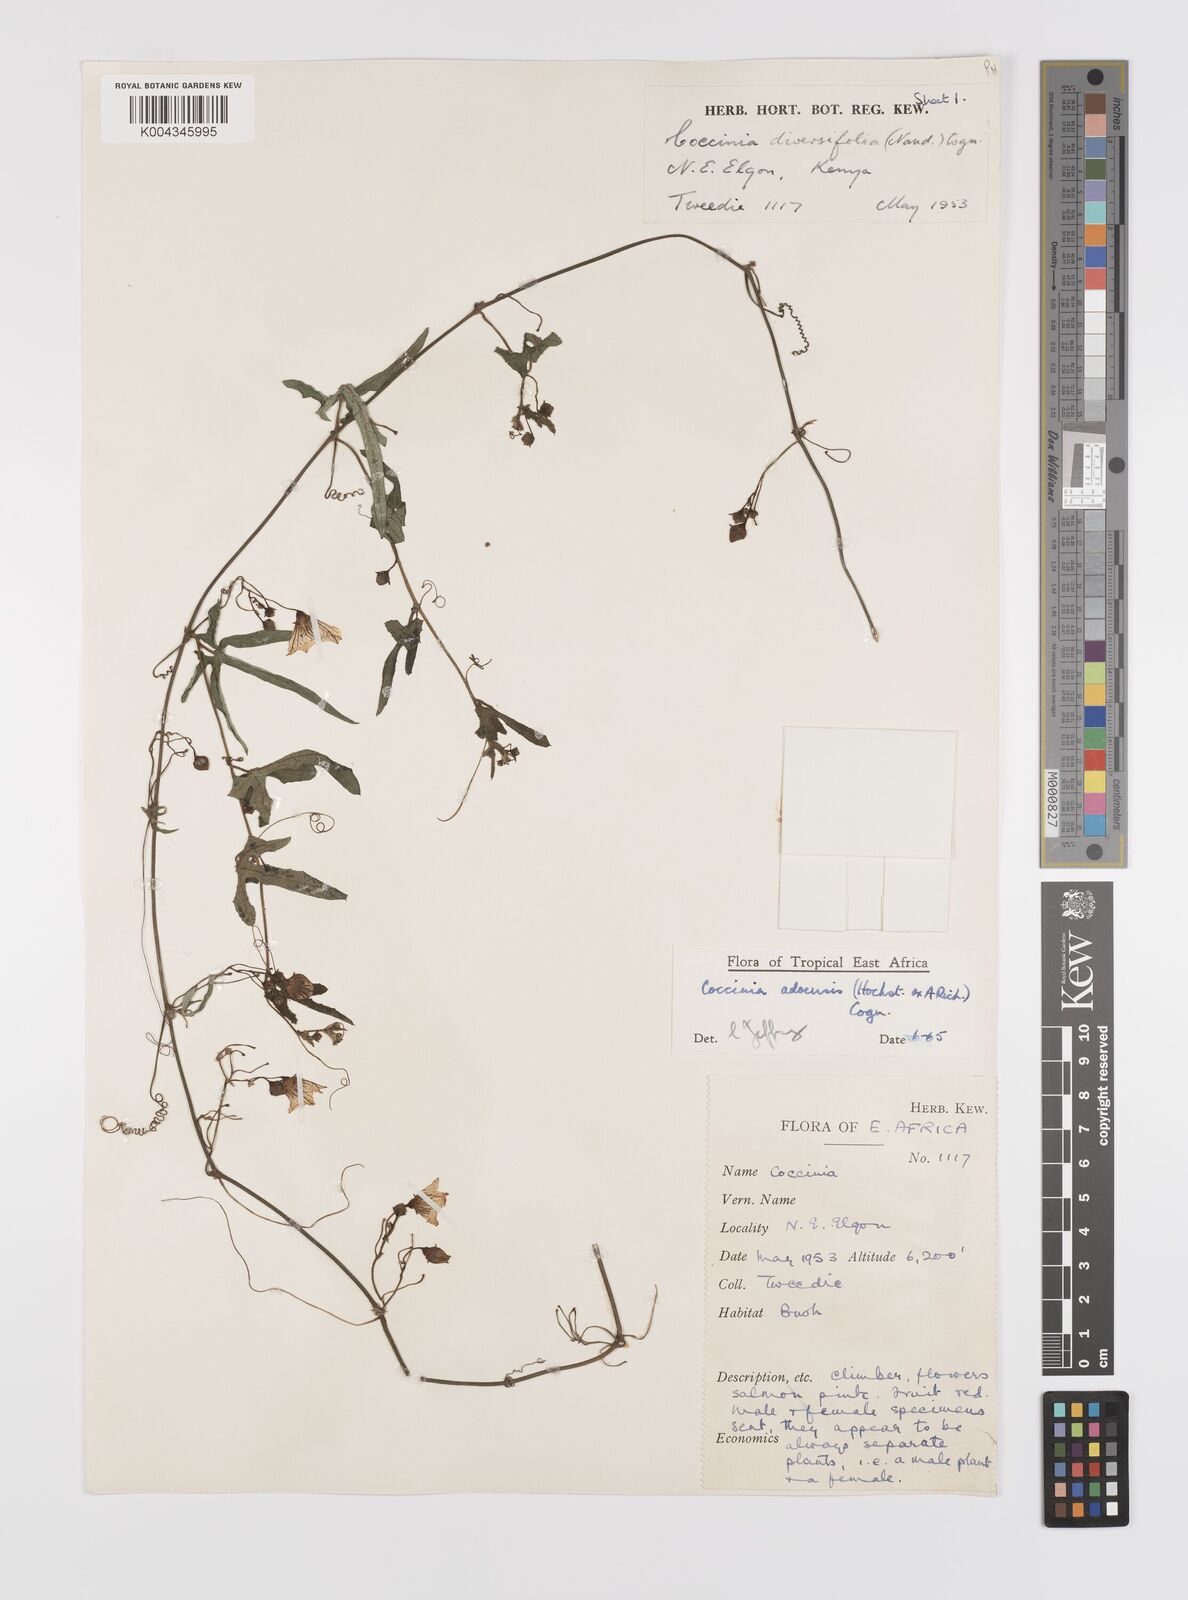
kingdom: Plantae
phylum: Tracheophyta
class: Magnoliopsida
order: Cucurbitales
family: Cucurbitaceae
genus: Coccinia
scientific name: Coccinia adoensis
